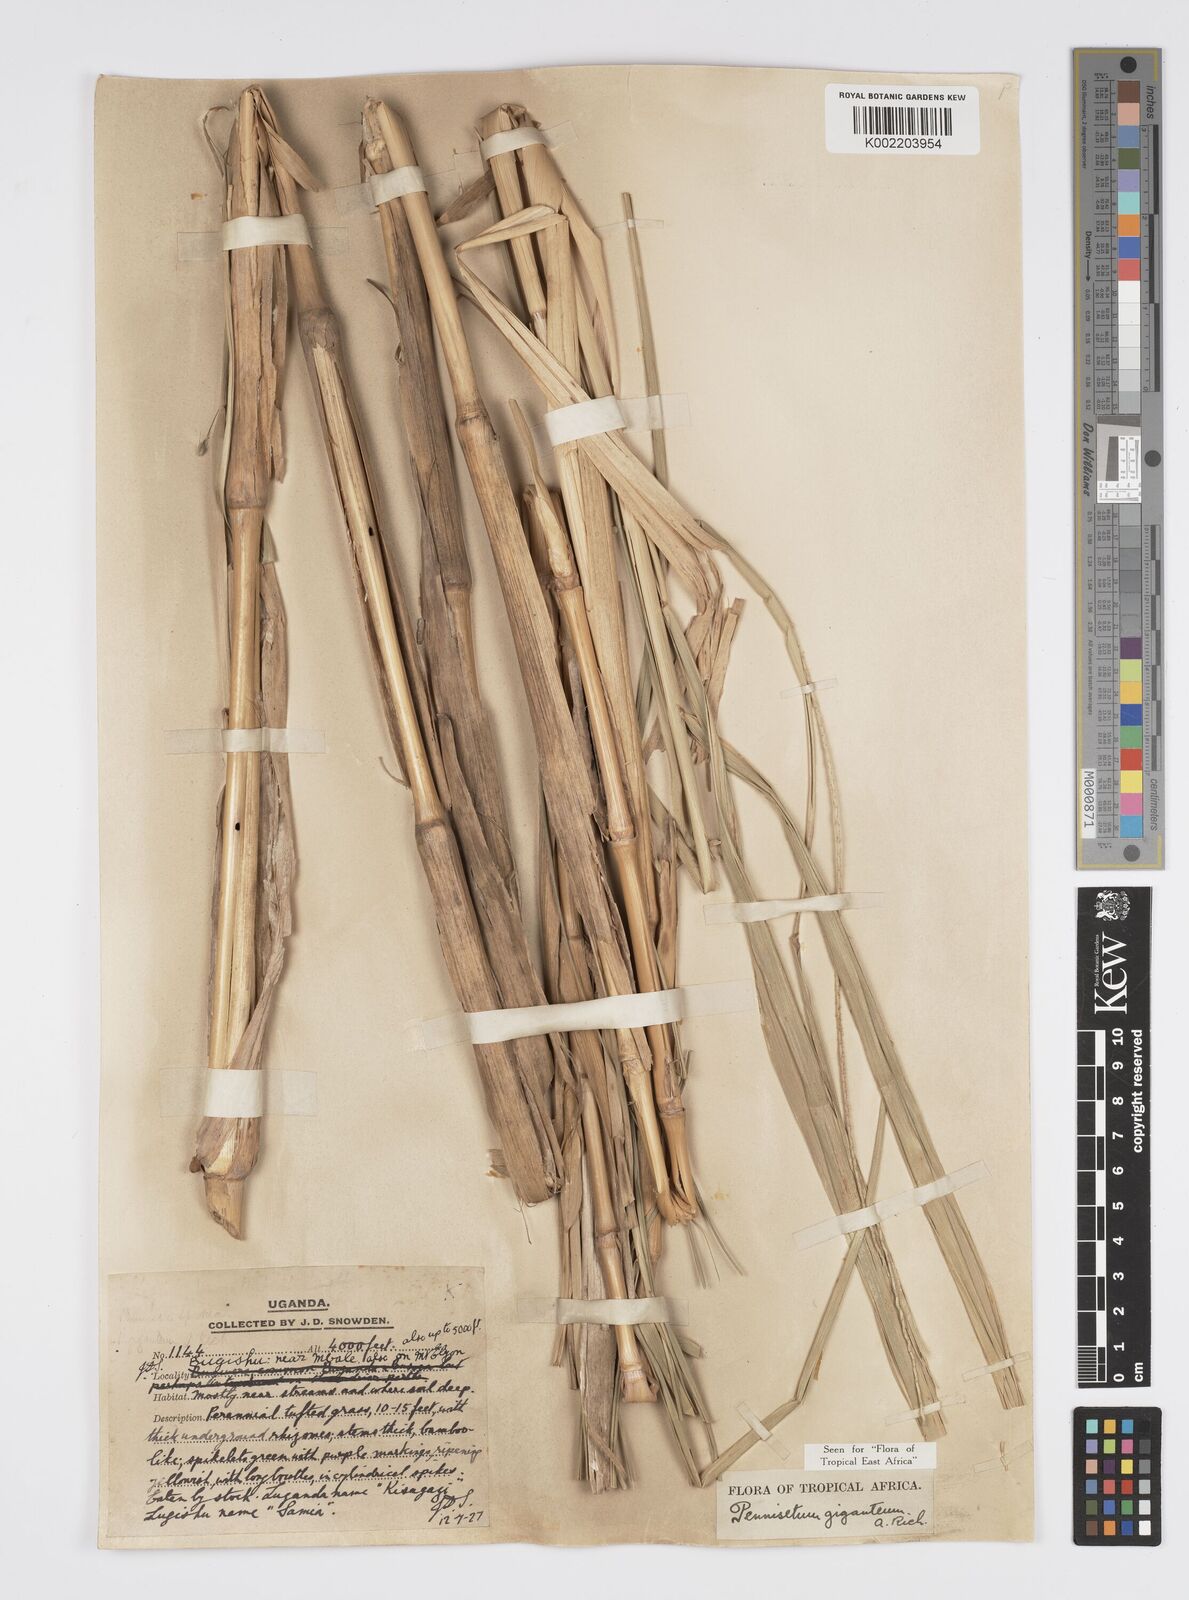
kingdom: Plantae
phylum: Tracheophyta
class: Liliopsida
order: Poales
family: Poaceae
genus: Cenchrus
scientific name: Cenchrus caudatus
